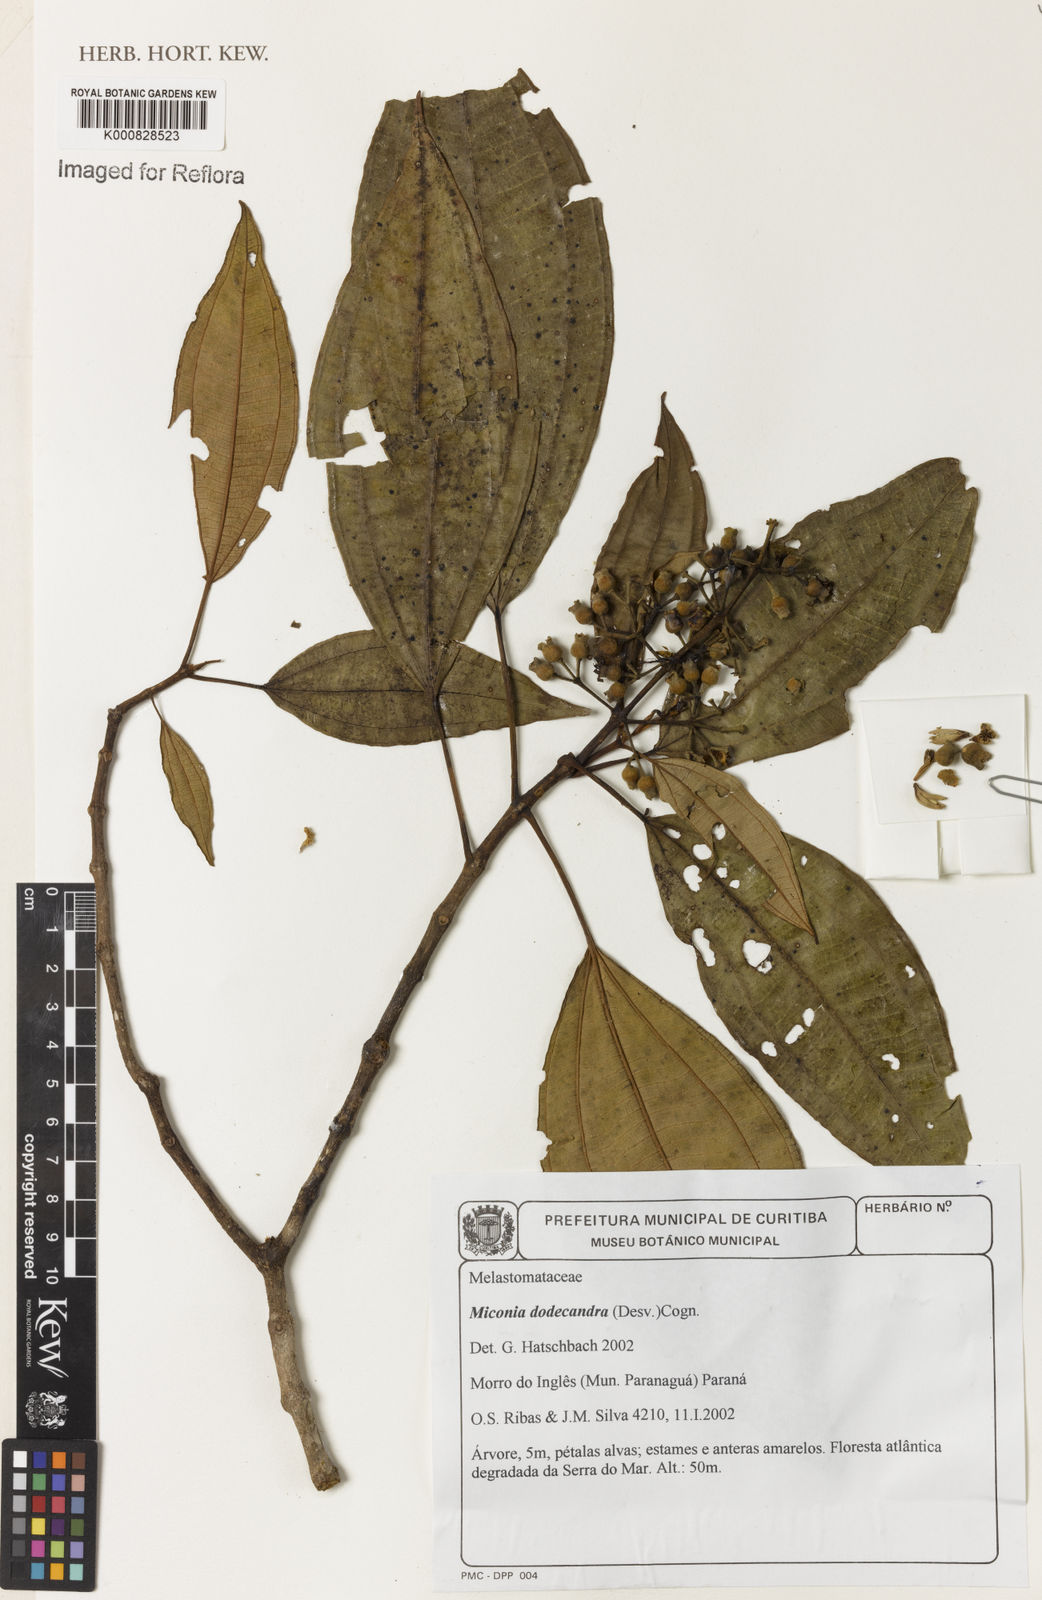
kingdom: Plantae
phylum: Tracheophyta
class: Magnoliopsida
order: Myrtales
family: Melastomataceae
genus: Miconia
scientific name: Miconia dodecandra
